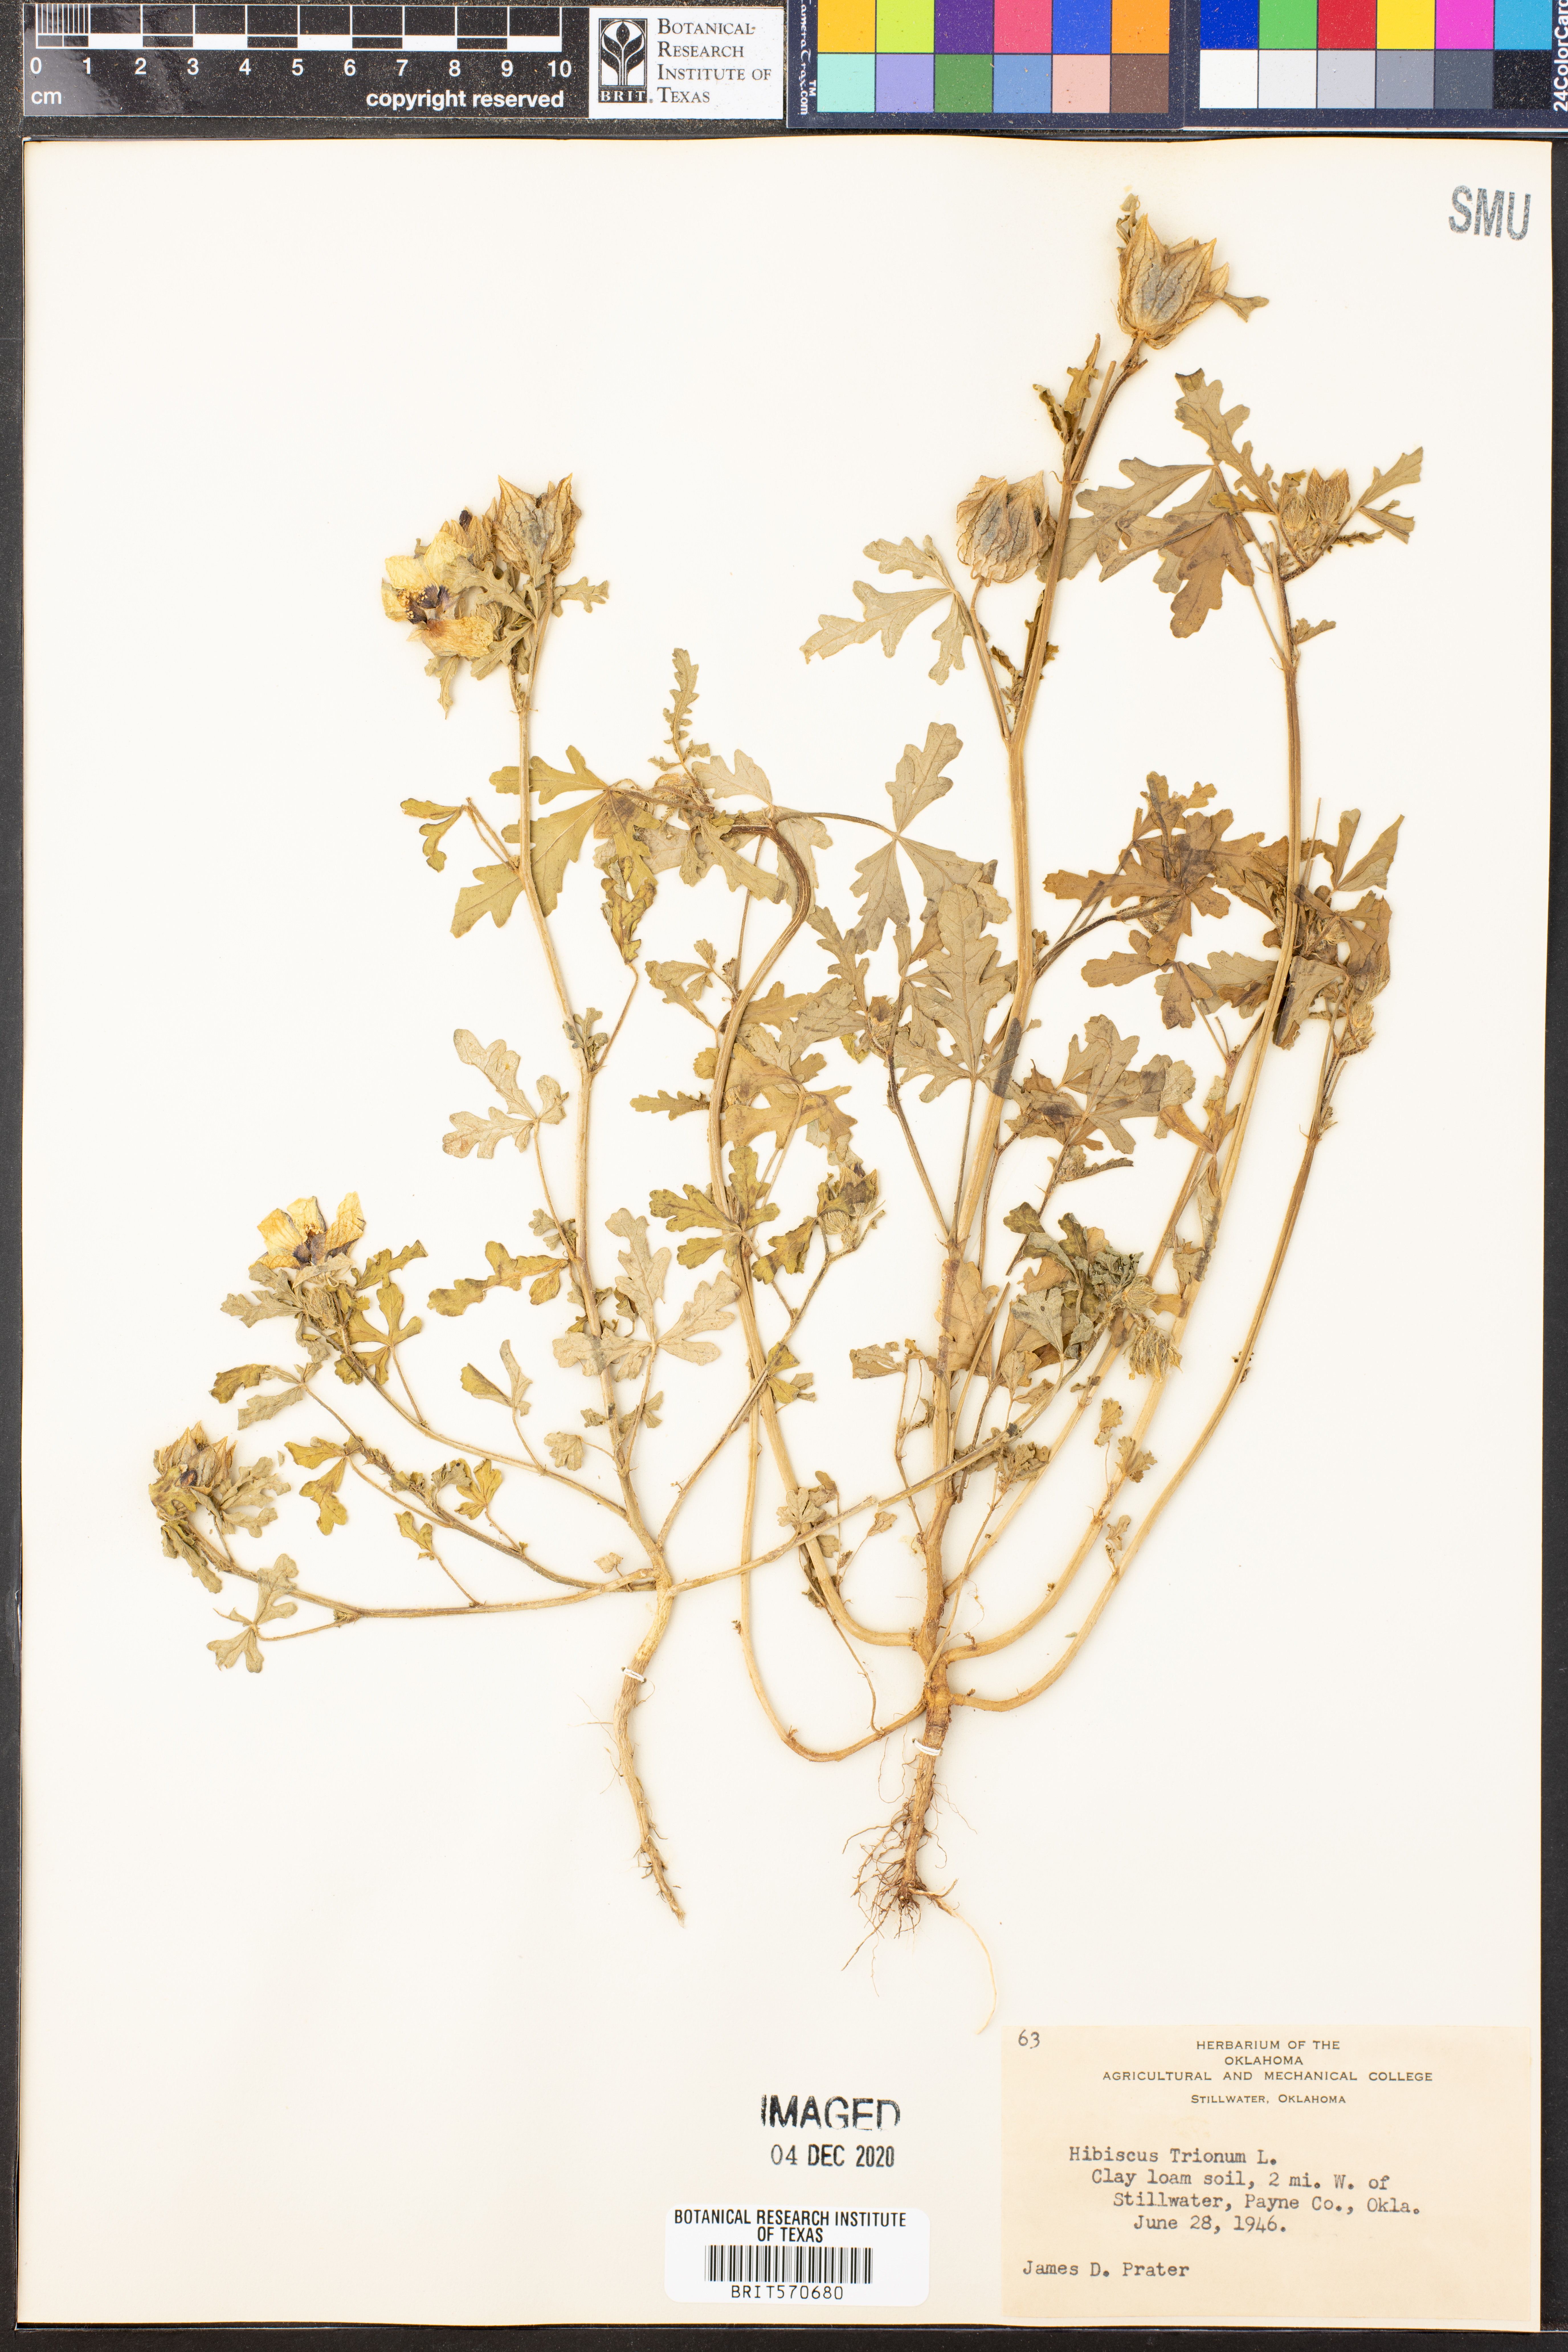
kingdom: Plantae
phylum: Tracheophyta
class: Magnoliopsida
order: Malvales
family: Malvaceae
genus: Hibiscus
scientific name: Hibiscus trionum
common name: Bladder ketmia
